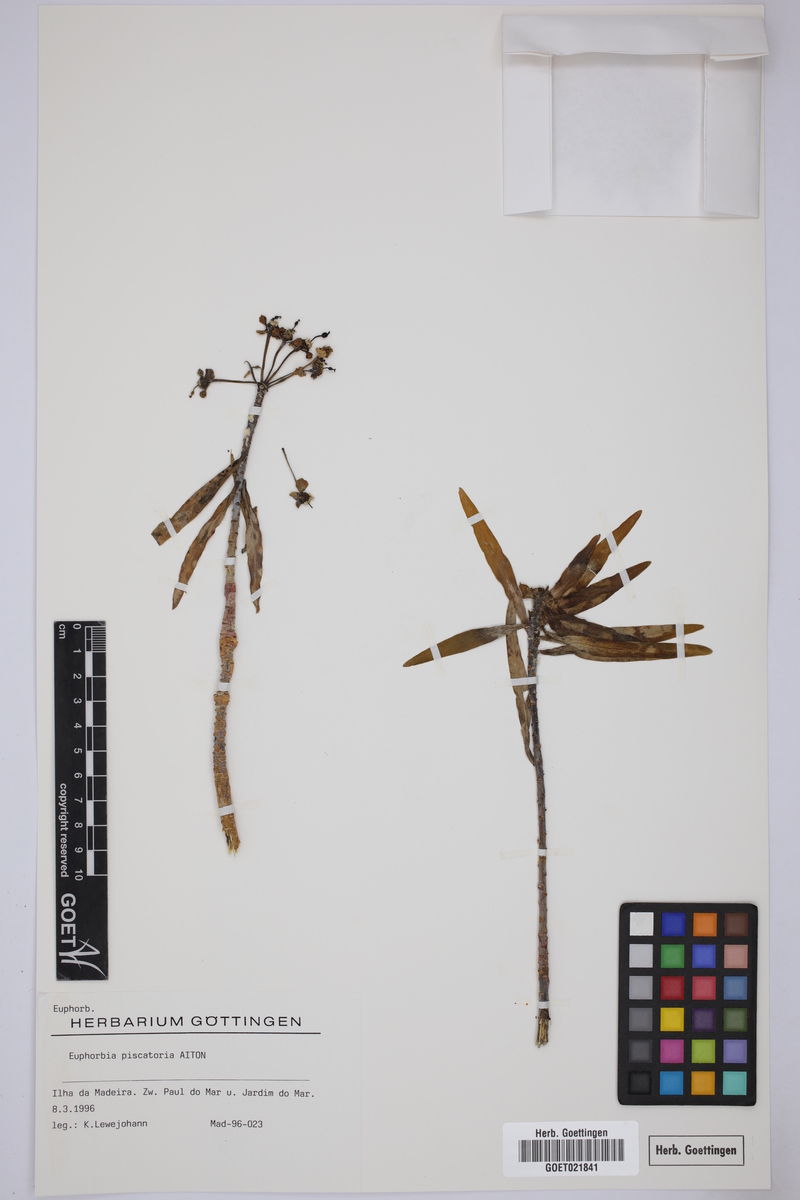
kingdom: Plantae
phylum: Tracheophyta
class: Magnoliopsida
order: Malpighiales
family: Euphorbiaceae
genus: Euphorbia
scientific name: Euphorbia piscatoria
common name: Fish-stunning spurge
